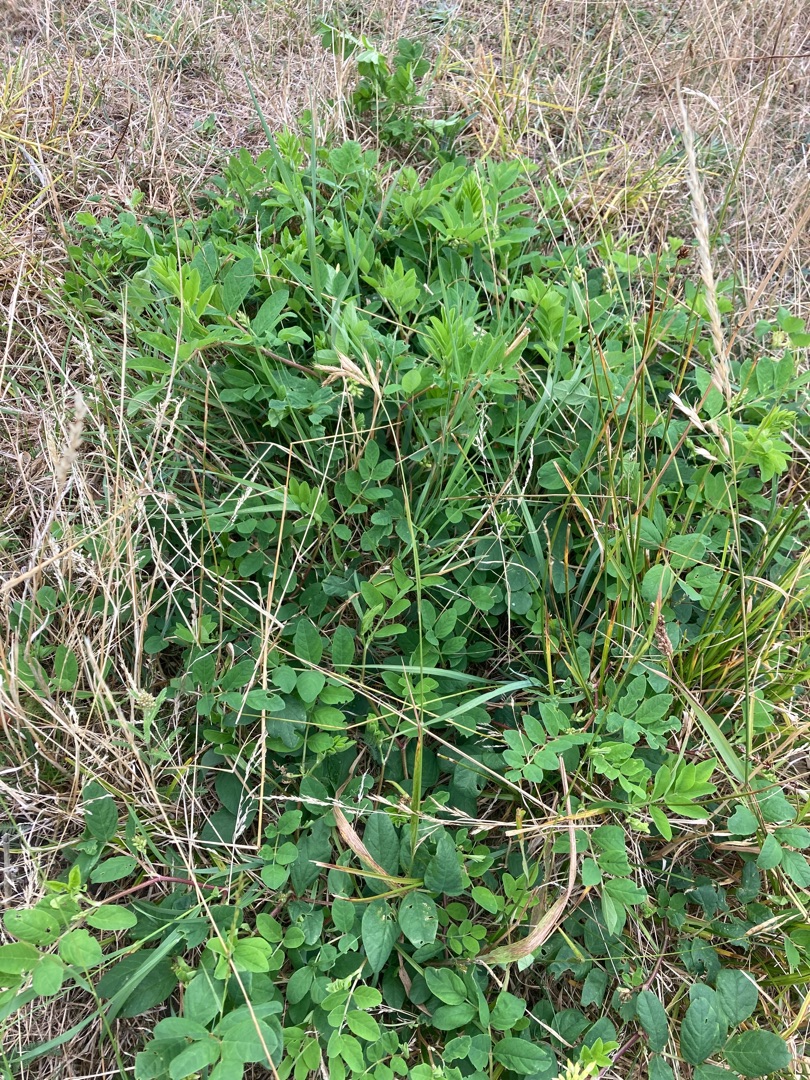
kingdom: Plantae
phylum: Tracheophyta
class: Magnoliopsida
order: Fabales
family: Fabaceae
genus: Astragalus
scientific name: Astragalus glycyphyllos
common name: Sød astragel
